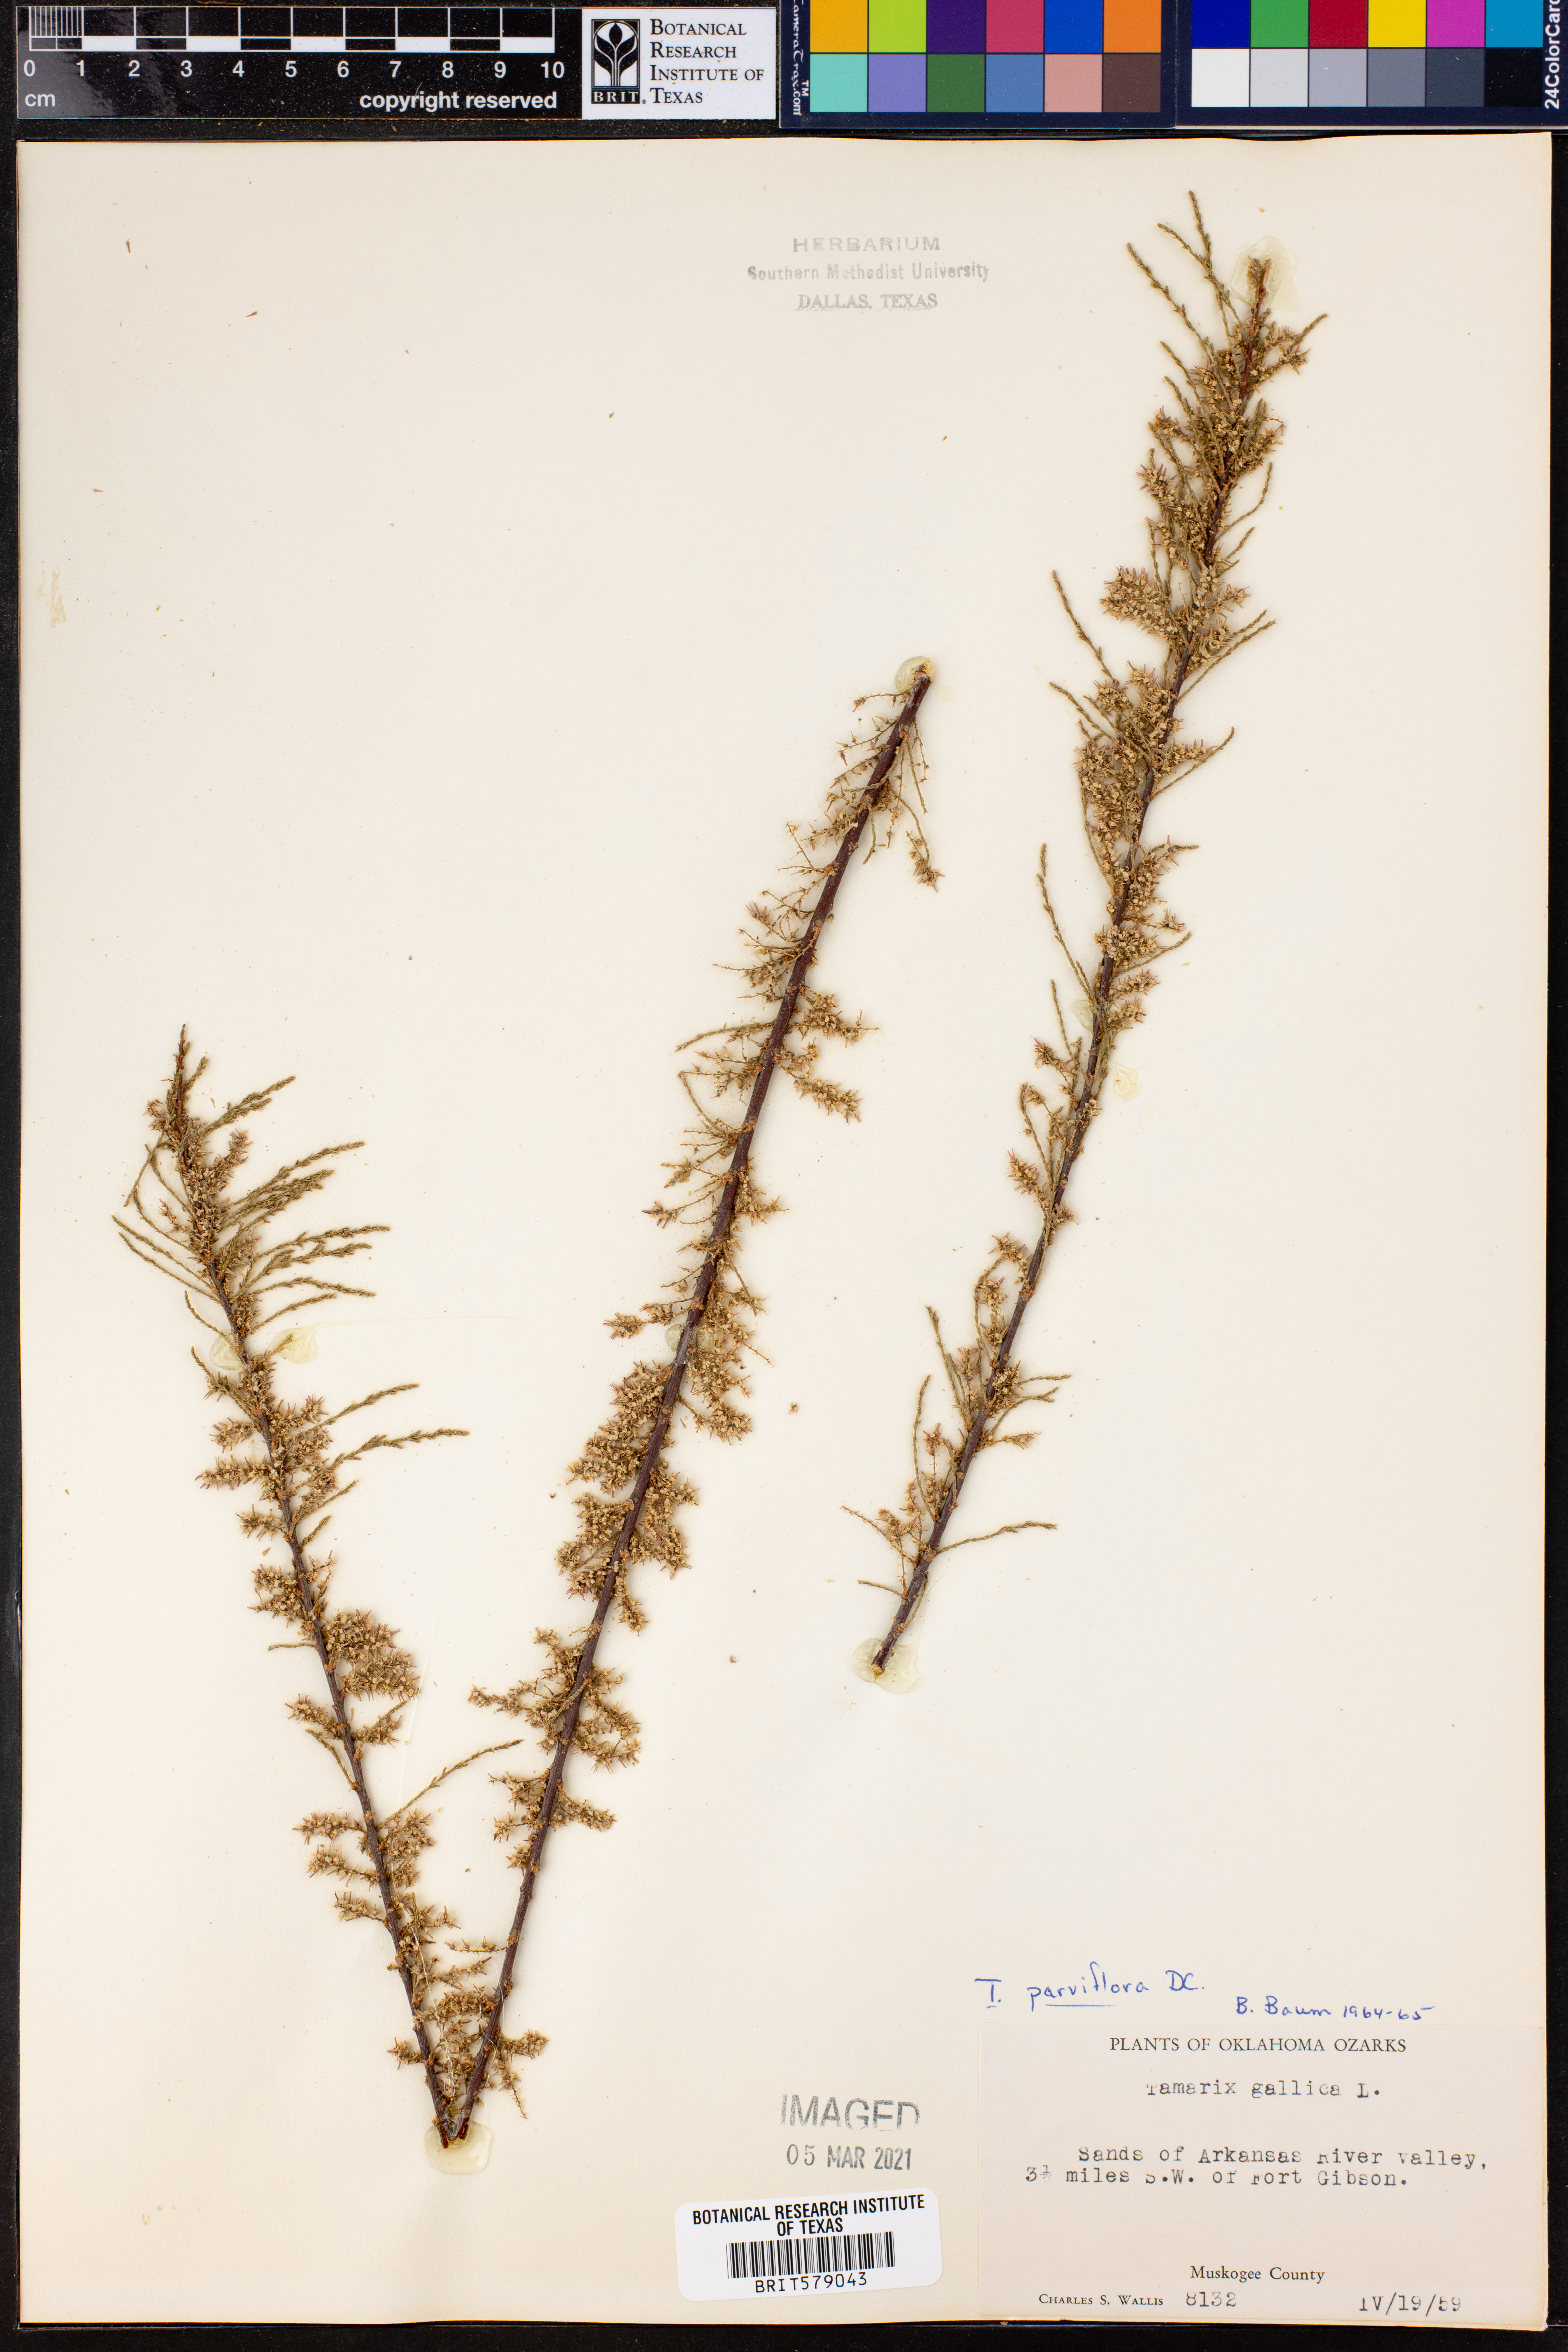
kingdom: Plantae
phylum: Tracheophyta
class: Magnoliopsida
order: Caryophyllales
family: Tamaricaceae
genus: Tamarix
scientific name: Tamarix parviflora
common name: Smallflower tamarisk
